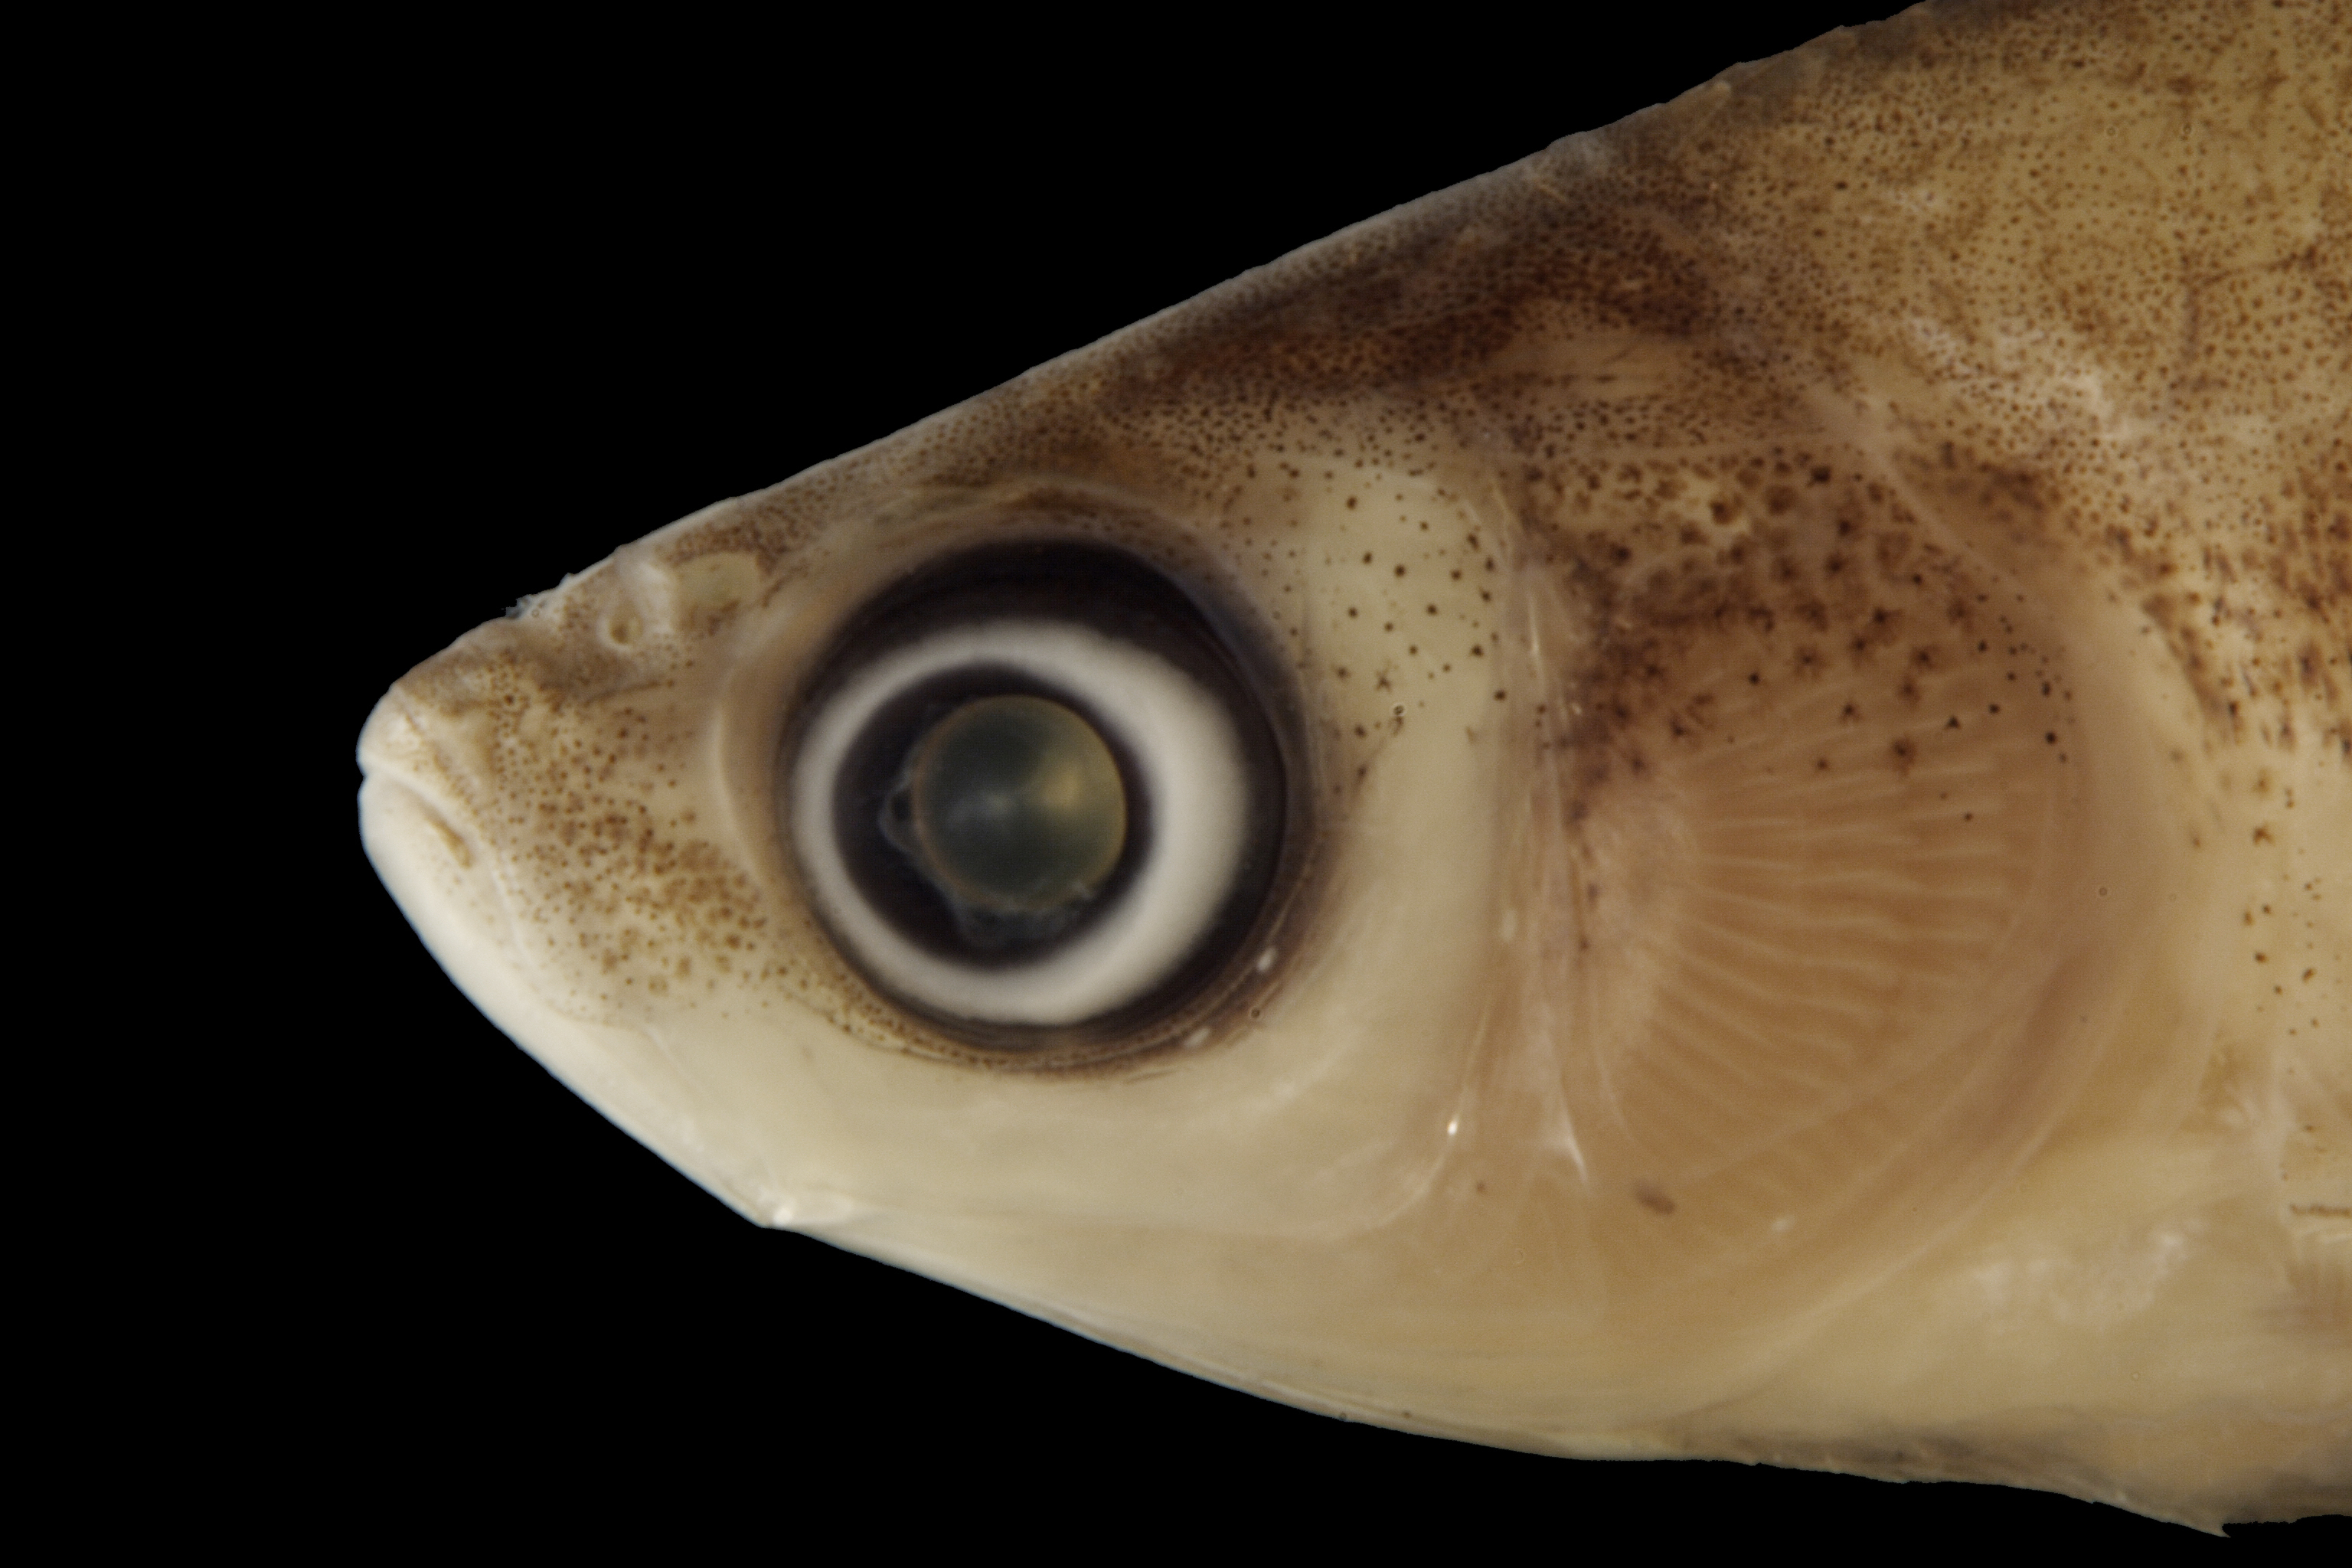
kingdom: Animalia
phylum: Chordata
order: Cypriniformes
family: Cyprinidae
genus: Notemigonus
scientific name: Notemigonus crysoleucas
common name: Golden shiner
